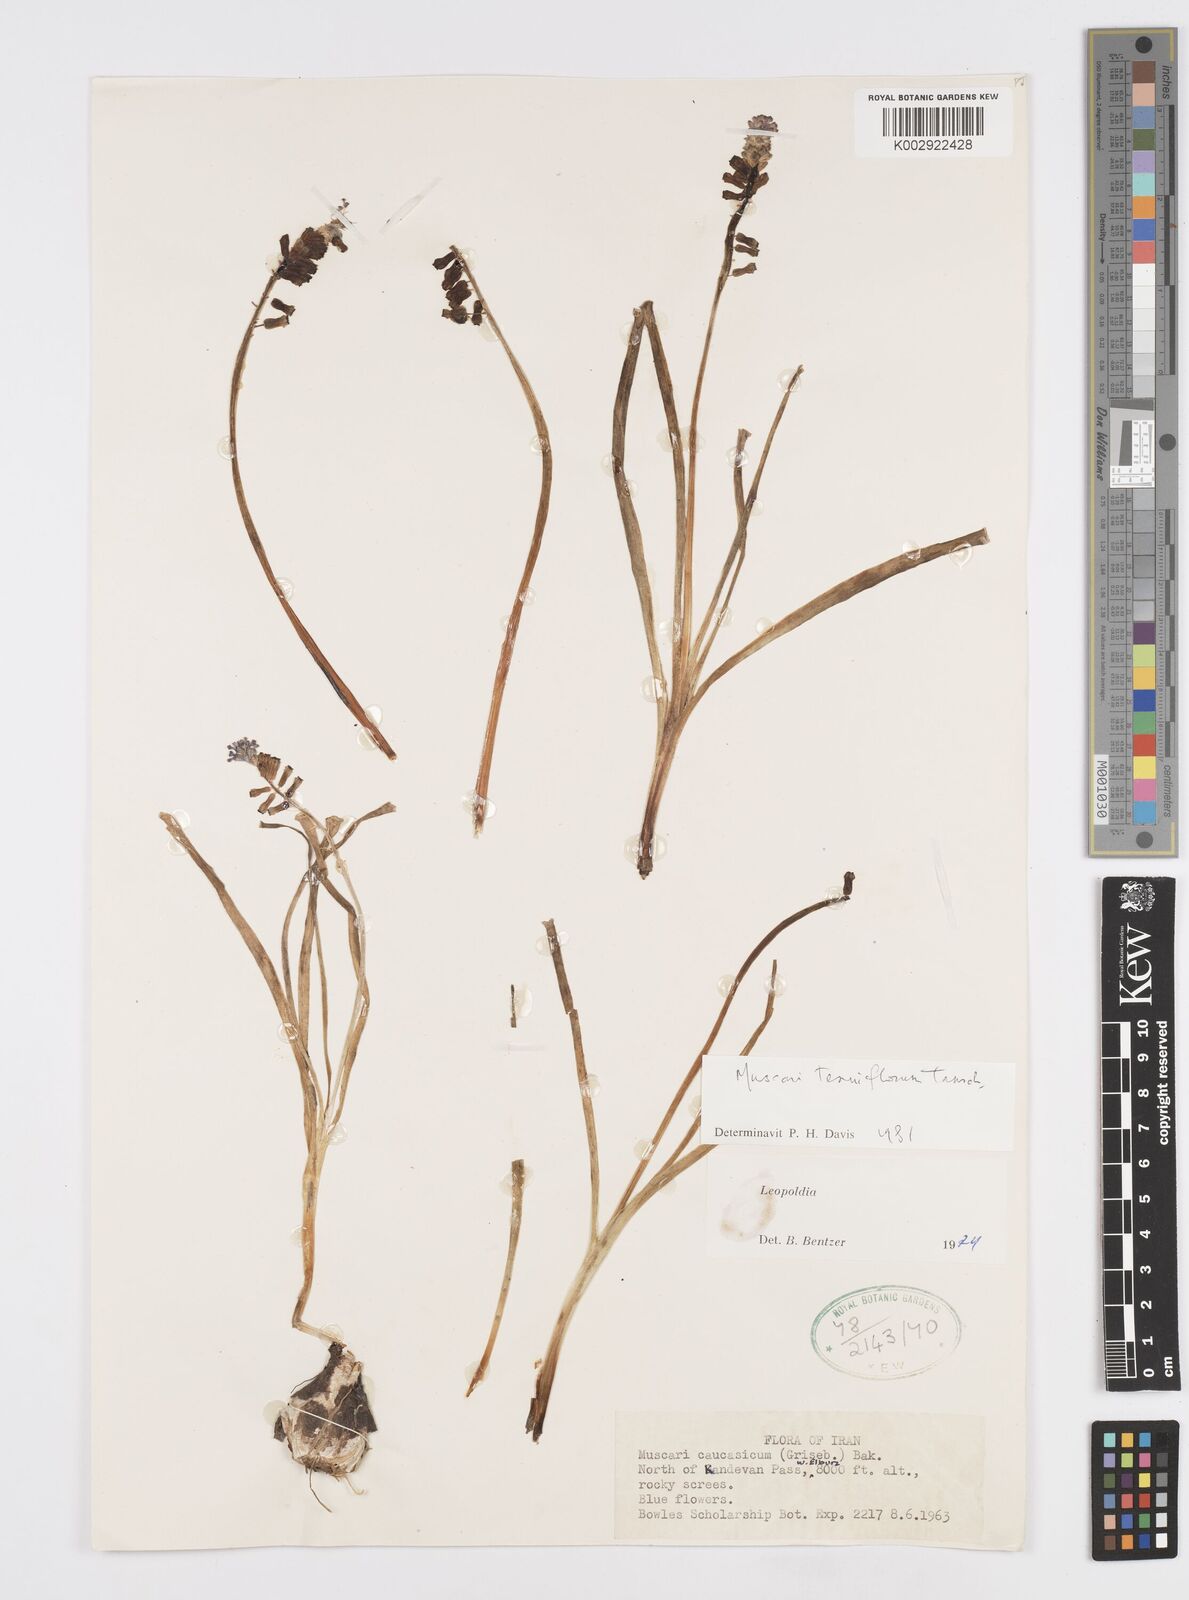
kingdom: Plantae
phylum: Tracheophyta
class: Liliopsida
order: Asparagales
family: Asparagaceae
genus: Muscari
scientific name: Muscari tenuiflorum
